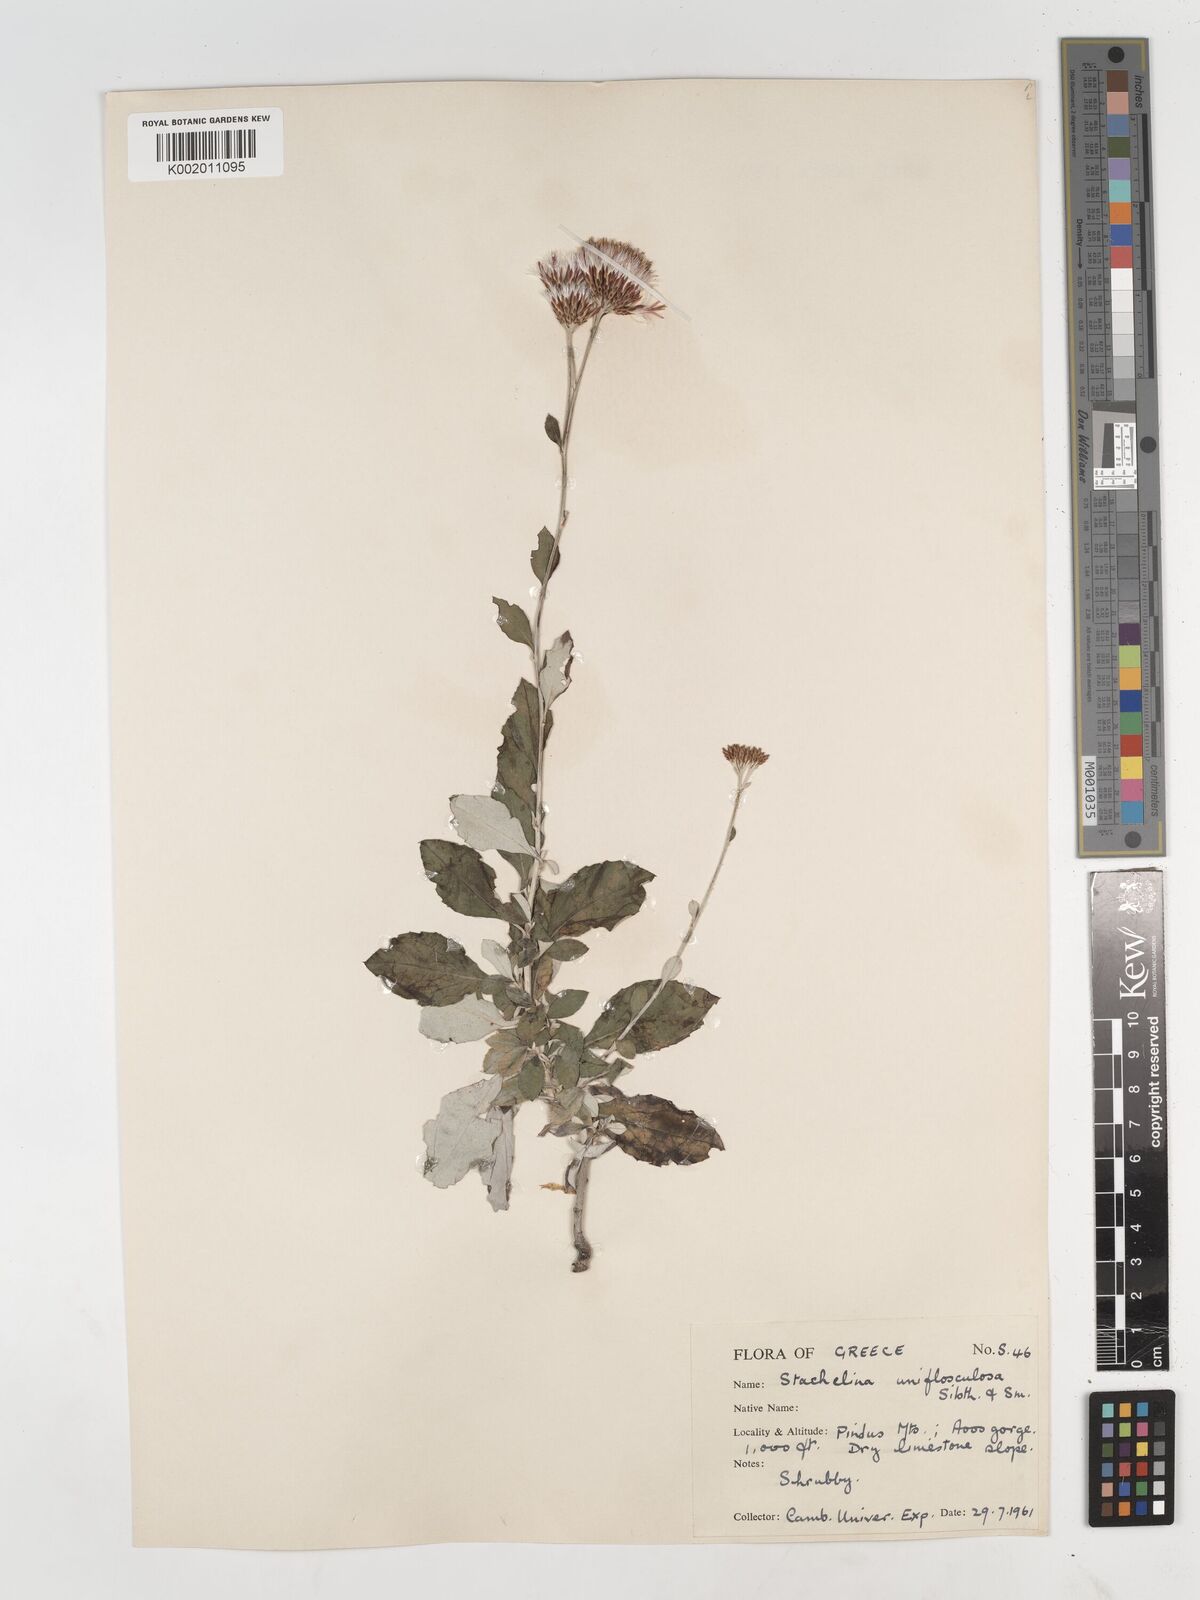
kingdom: Plantae
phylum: Tracheophyta
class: Magnoliopsida
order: Asterales
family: Asteraceae
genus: Staehelina
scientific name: Staehelina uniflosculosa
